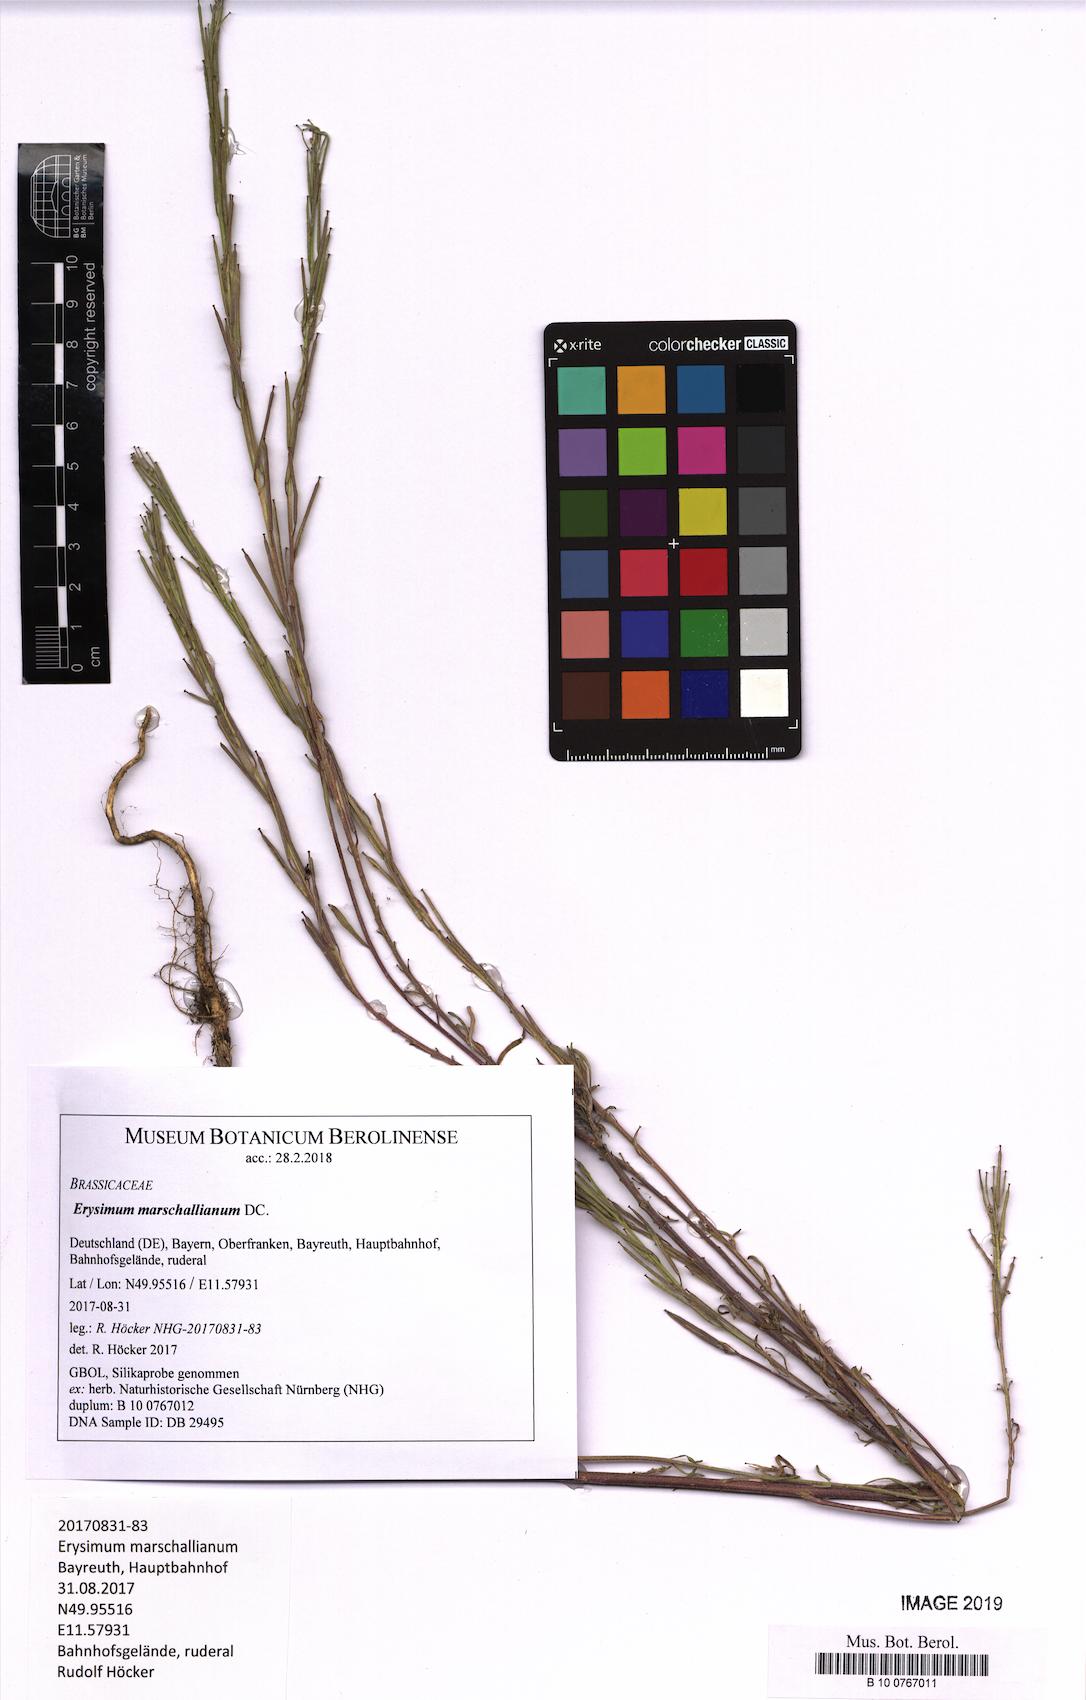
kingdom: Plantae
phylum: Tracheophyta
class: Magnoliopsida
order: Brassicales
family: Brassicaceae
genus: Erysimum
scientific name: Erysimum marschallianum
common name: Hard wallflower
